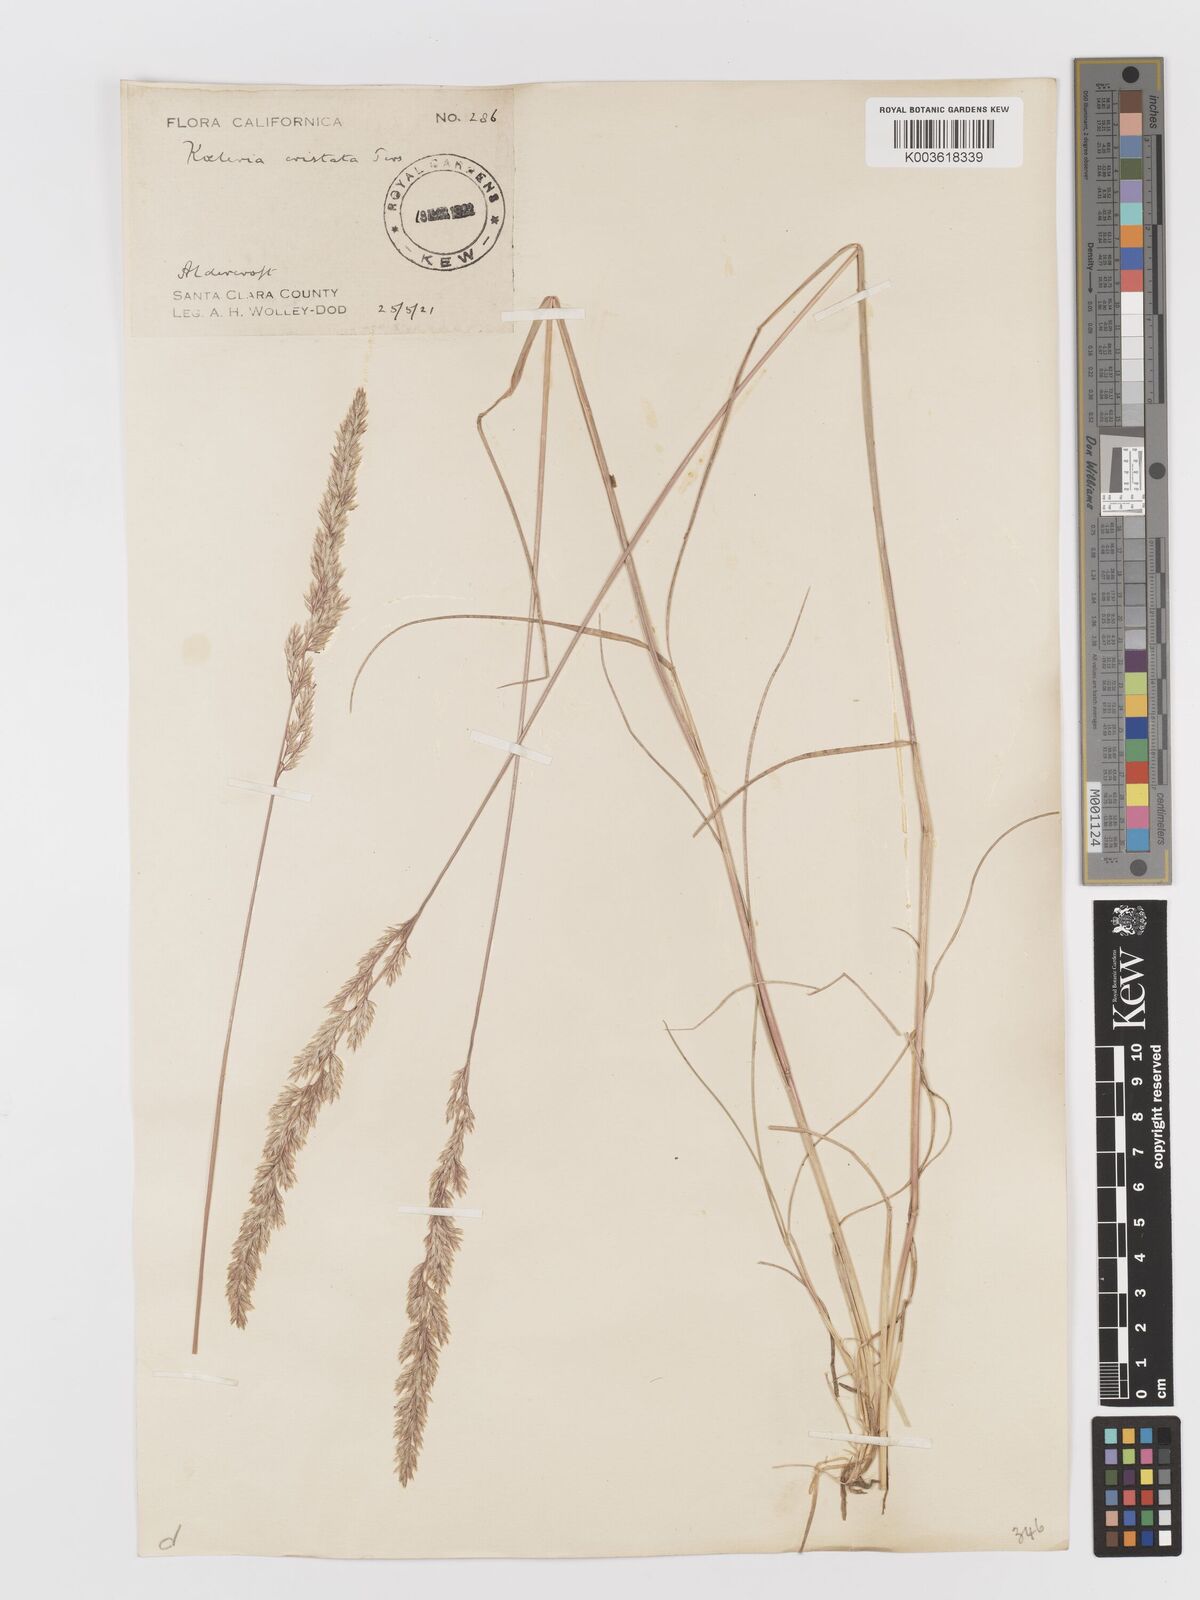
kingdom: Plantae
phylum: Tracheophyta
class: Liliopsida
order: Poales
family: Poaceae
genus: Koeleria
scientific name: Koeleria
